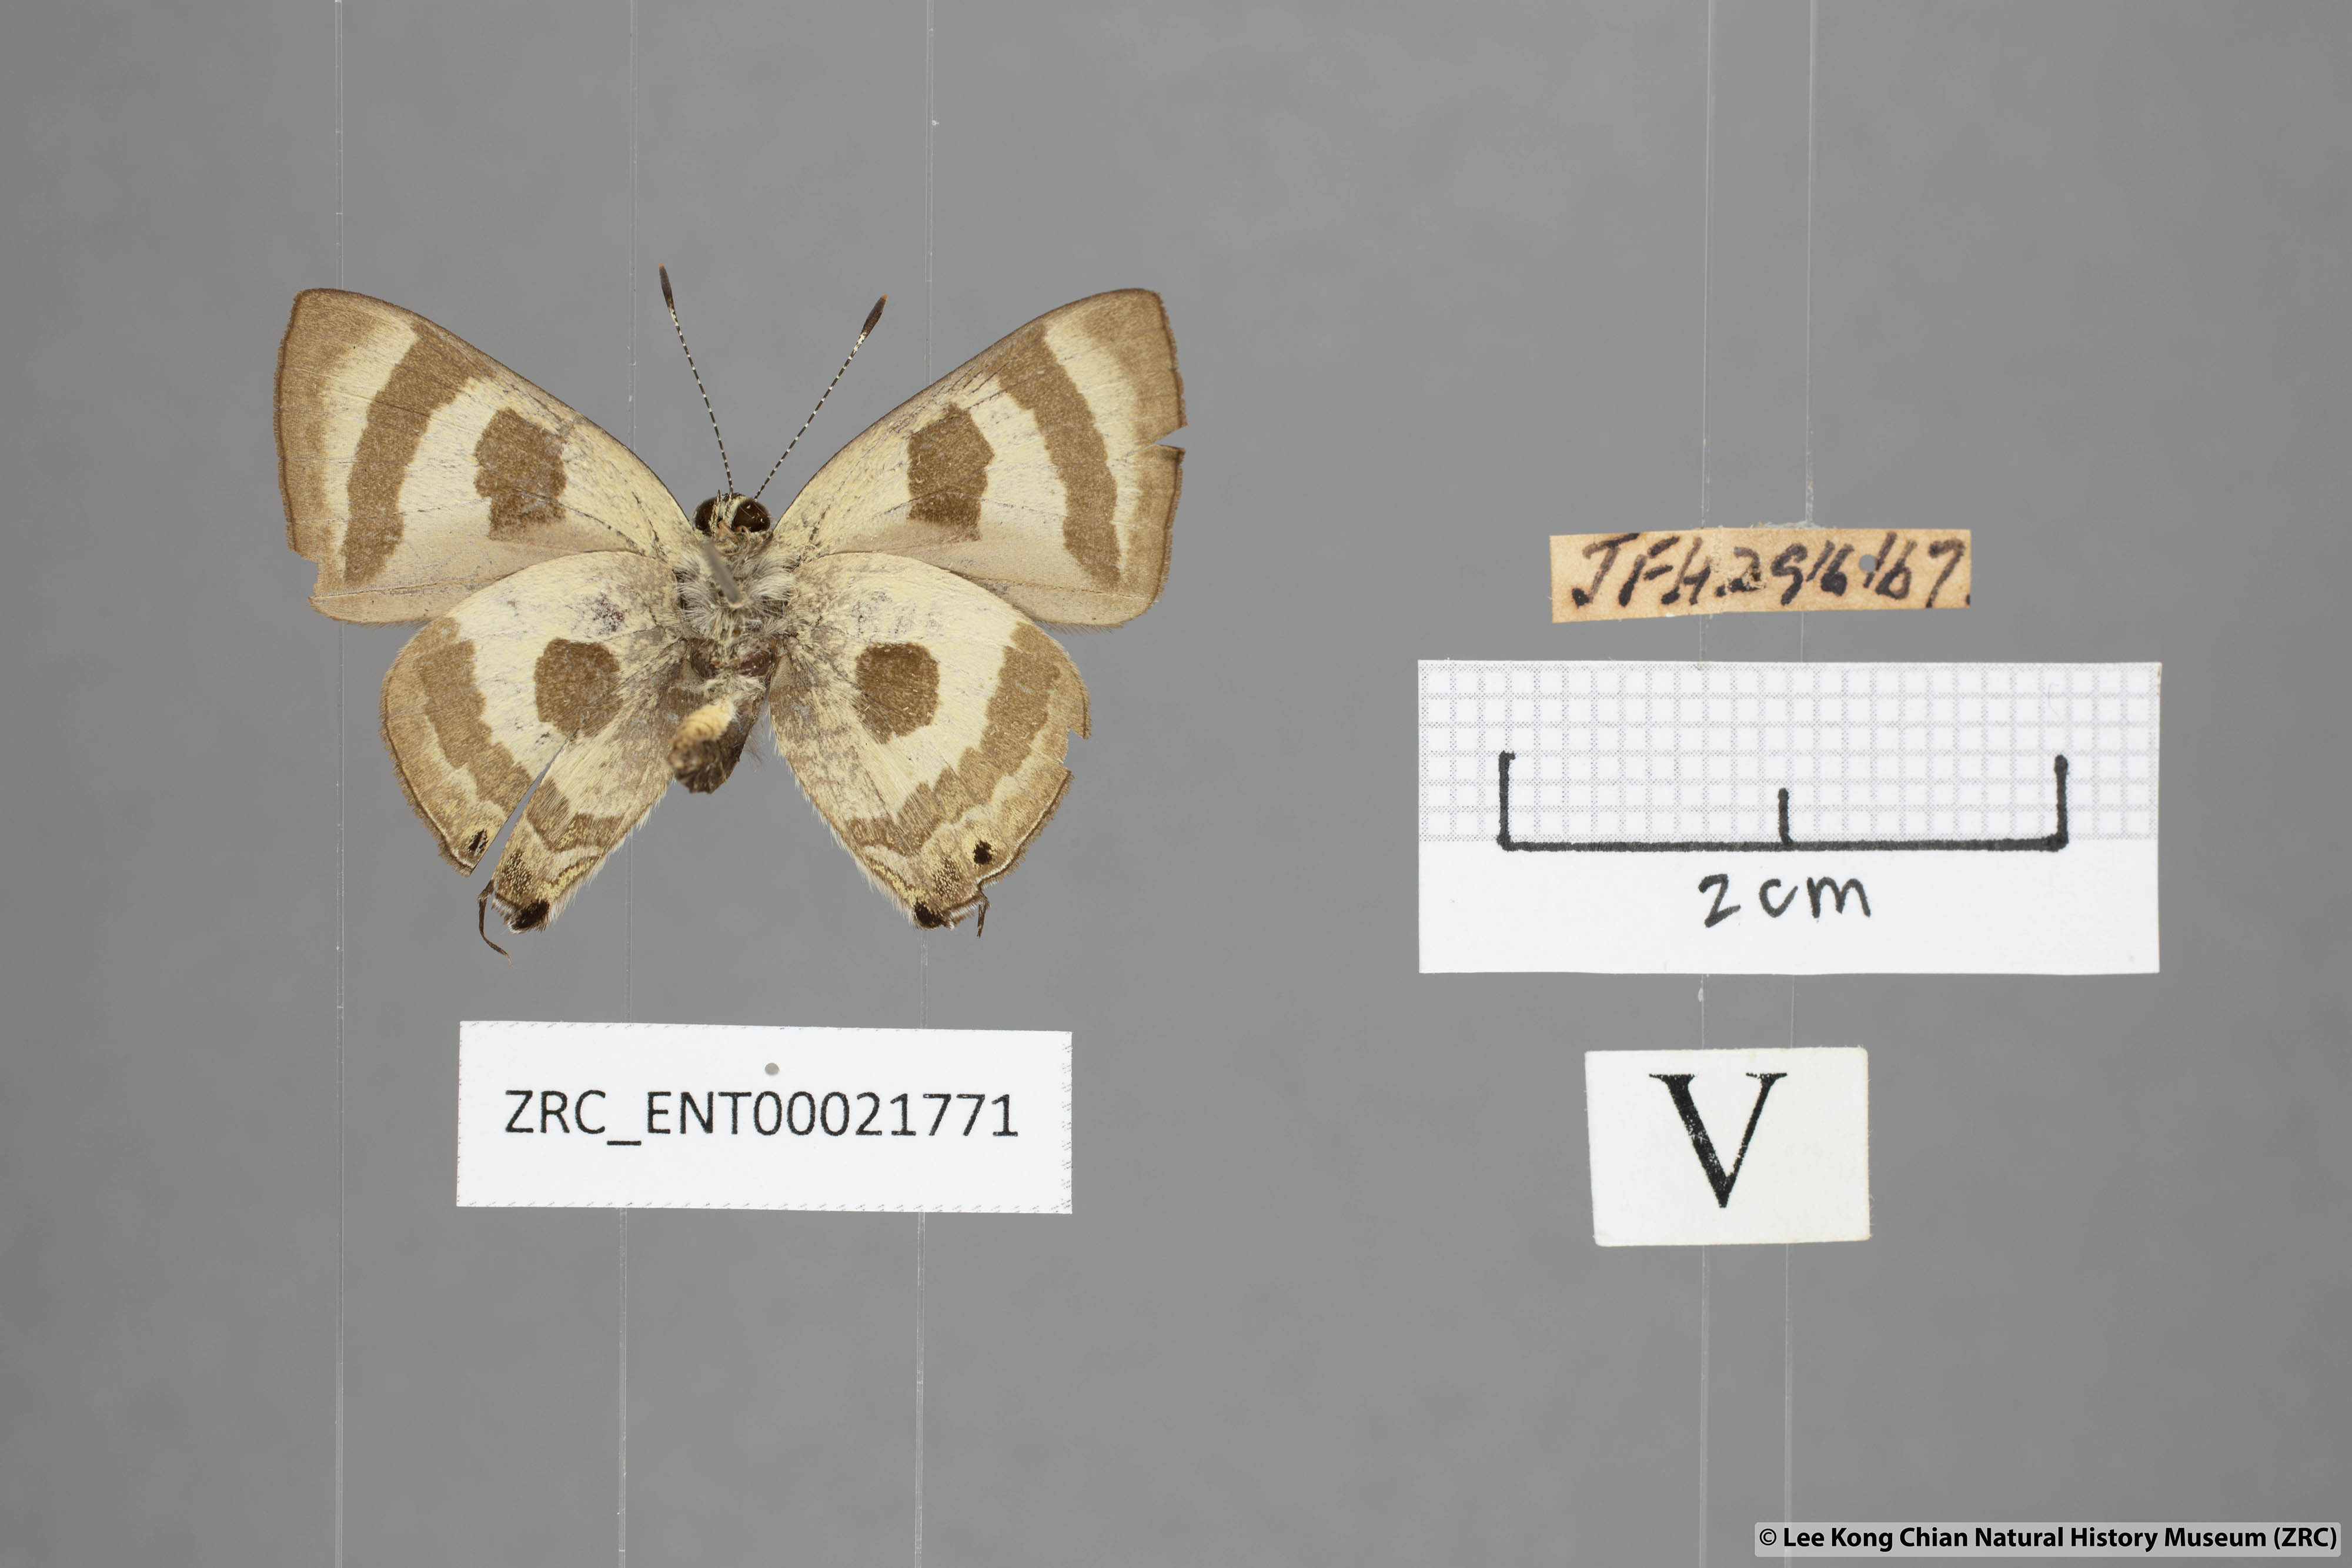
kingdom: Animalia
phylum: Arthropoda
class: Insecta
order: Lepidoptera
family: Lycaenidae
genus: Rapala
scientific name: Rapala
